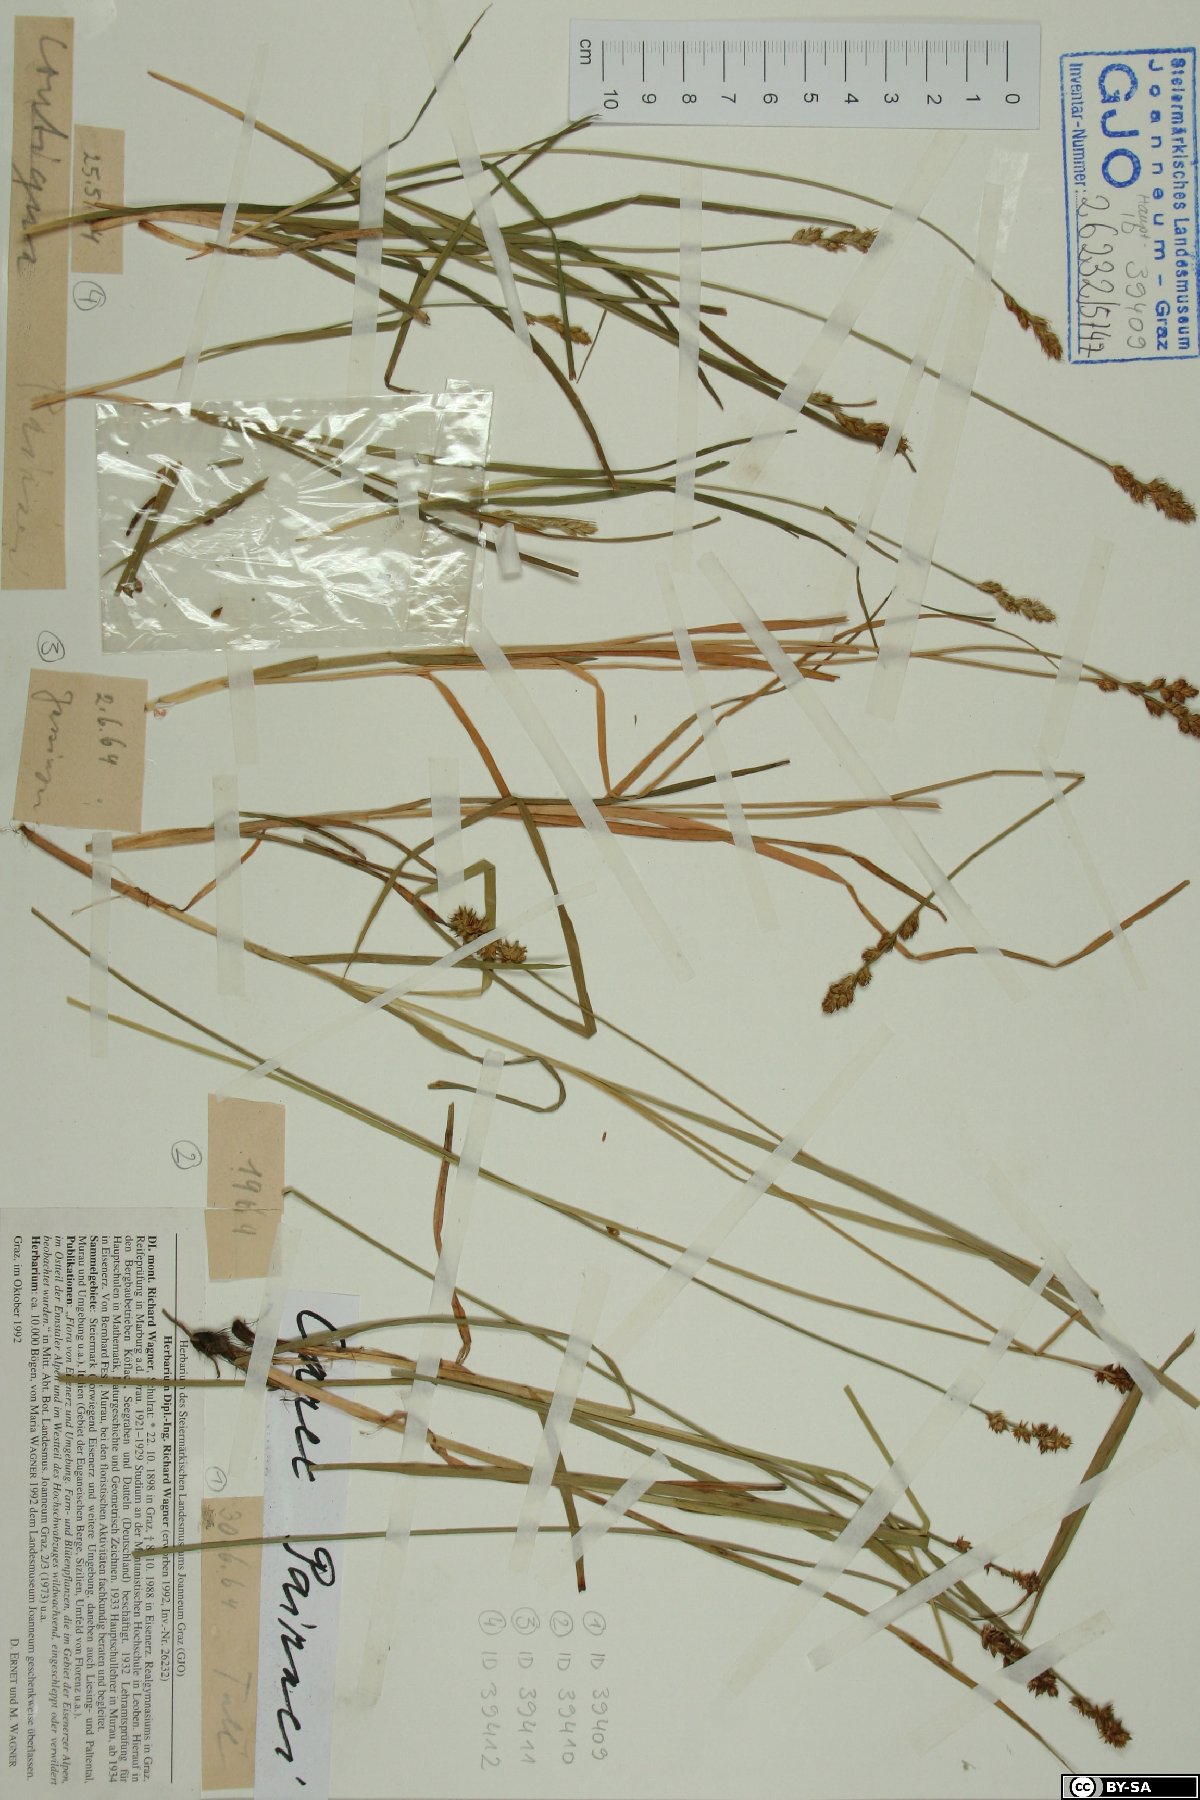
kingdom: Plantae
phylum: Tracheophyta
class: Liliopsida
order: Poales
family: Cyperaceae
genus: Carex
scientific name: Carex pairae
